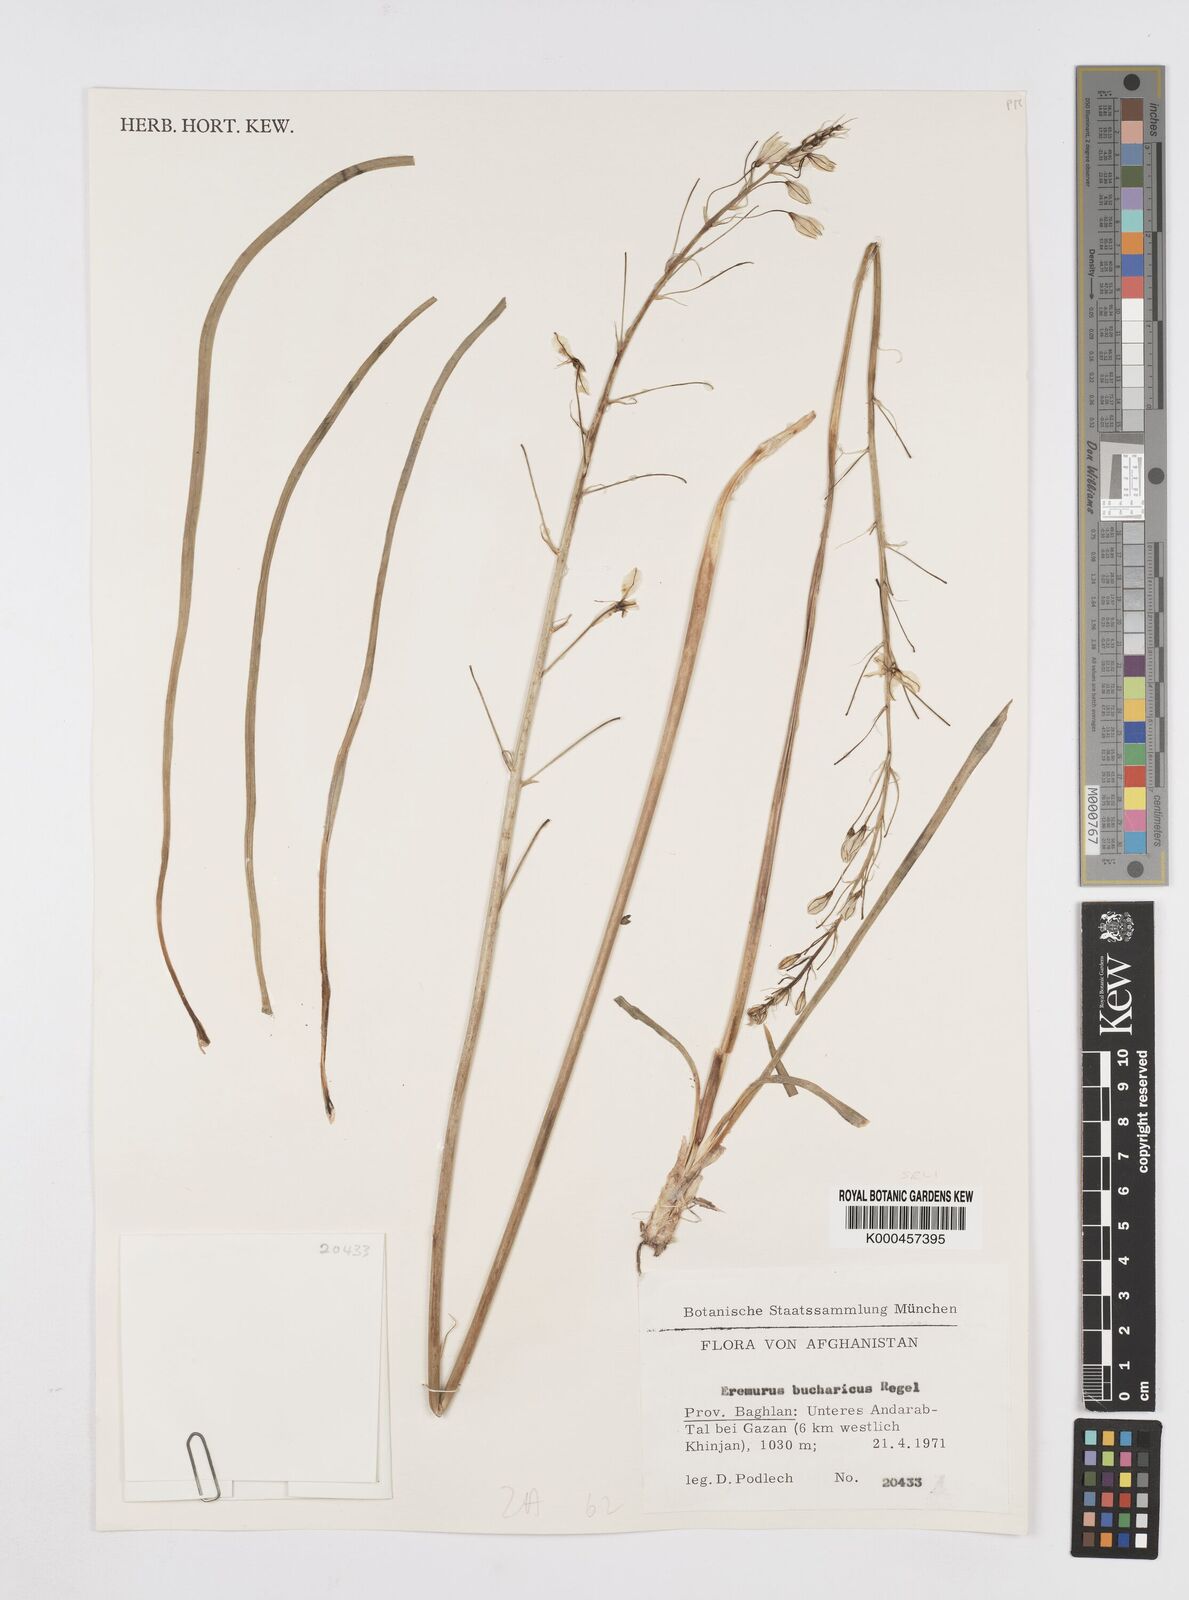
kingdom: Plantae
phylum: Tracheophyta
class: Liliopsida
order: Asparagales
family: Asphodelaceae
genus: Eremurus
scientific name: Eremurus bucharicus
